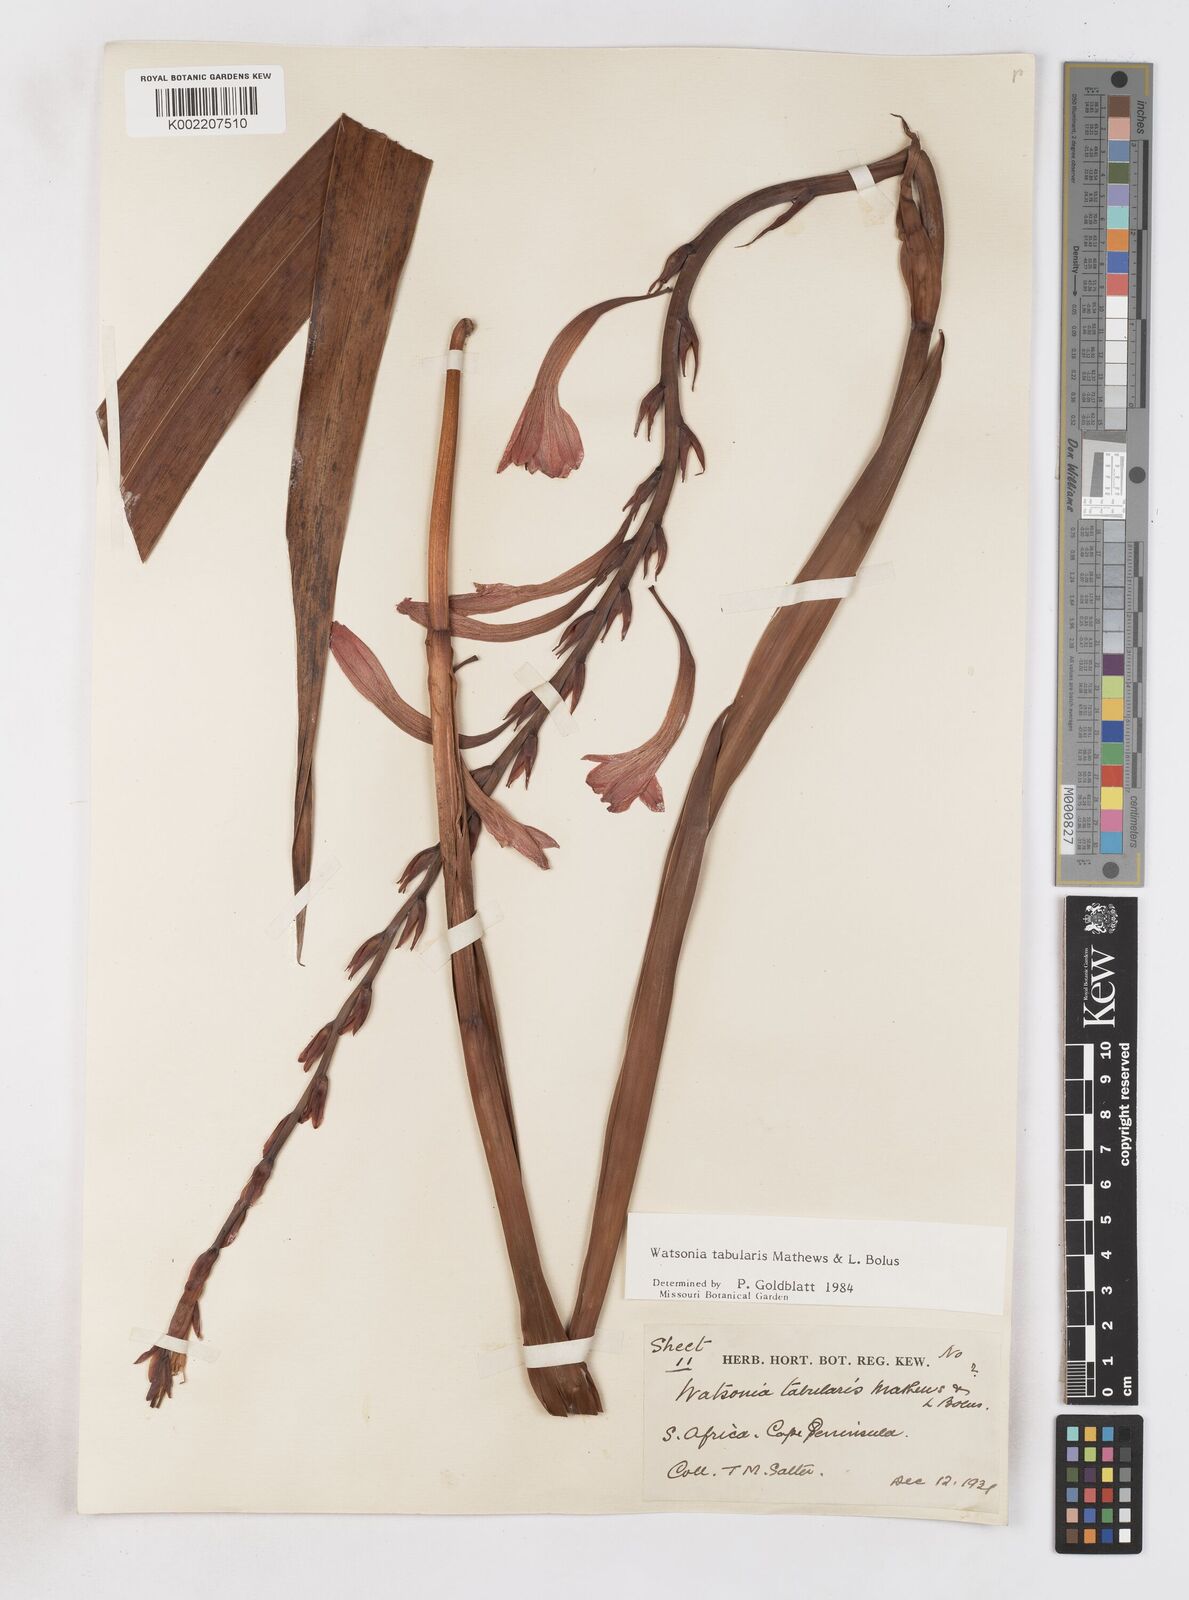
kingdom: Plantae
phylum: Tracheophyta
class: Liliopsida
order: Asparagales
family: Iridaceae
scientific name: Iridaceae
